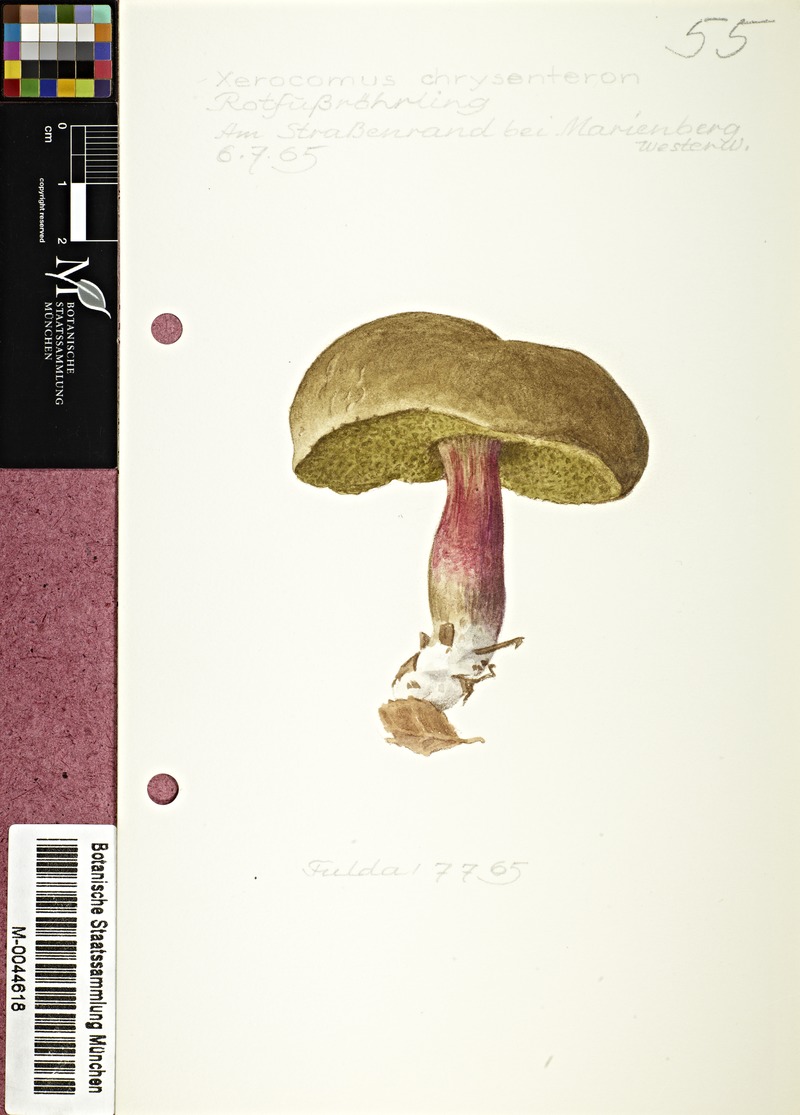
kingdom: Fungi
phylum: Basidiomycota
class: Agaricomycetes
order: Boletales
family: Boletaceae
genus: Xerocomellus
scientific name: Xerocomellus chrysenteron
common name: Red-cracking bolete
